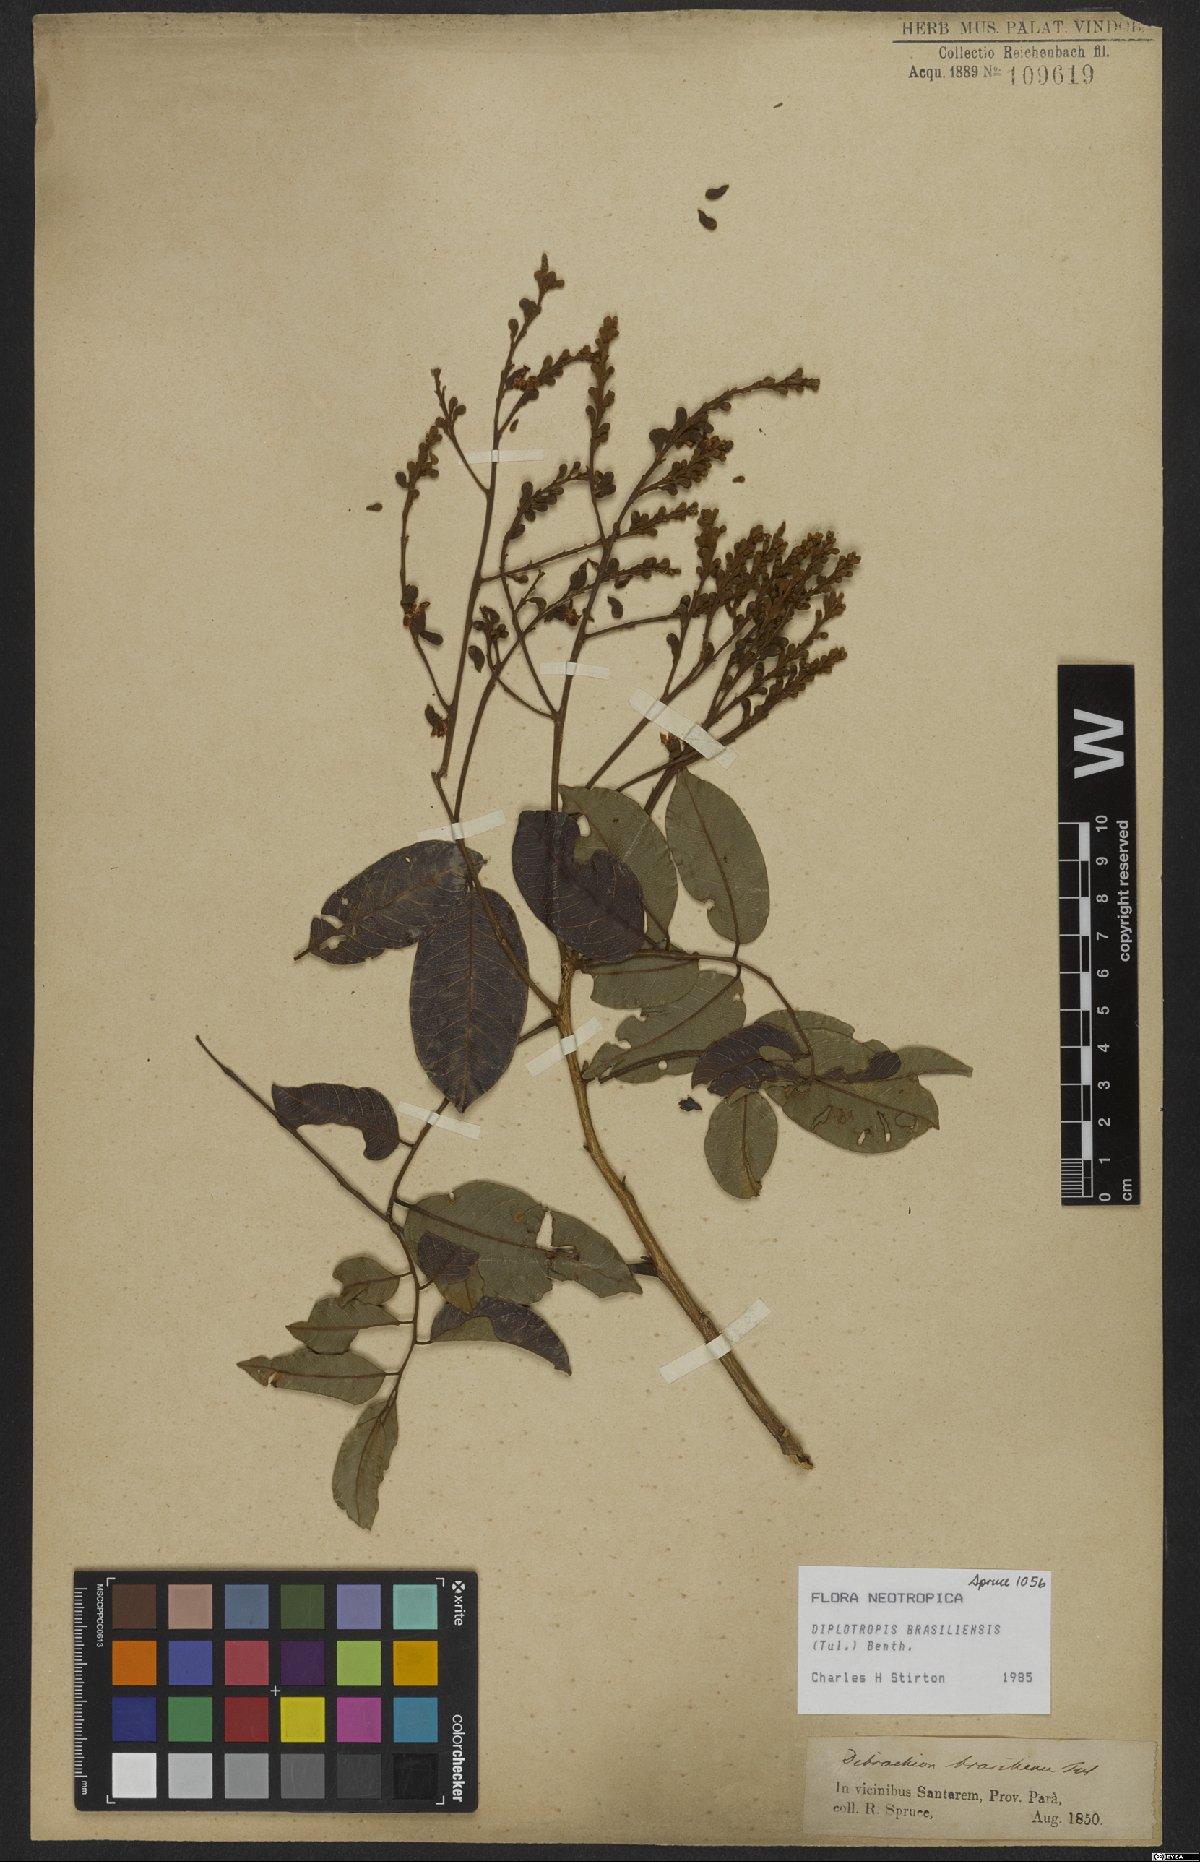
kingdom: Plantae
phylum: Tracheophyta
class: Magnoliopsida
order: Fabales
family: Fabaceae
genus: Diplotropis
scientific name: Diplotropis brasiliensis
